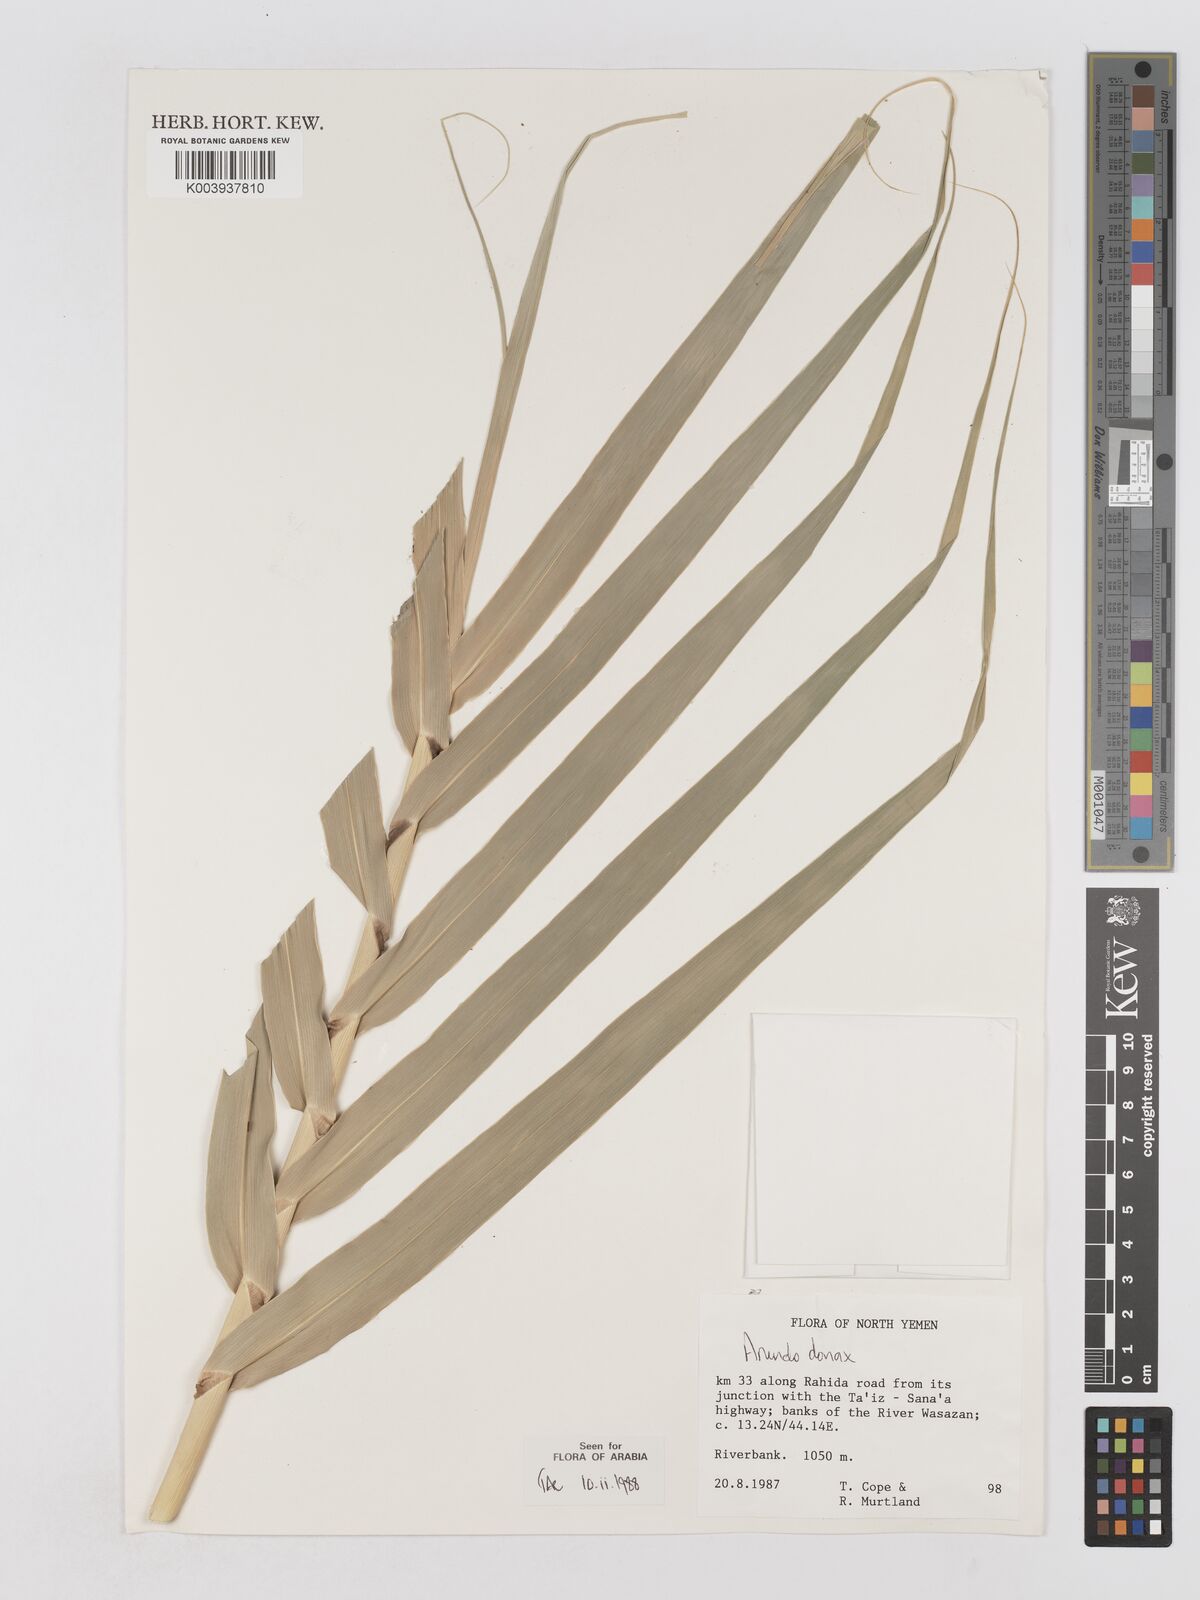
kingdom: Plantae
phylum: Tracheophyta
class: Liliopsida
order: Poales
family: Poaceae
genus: Arundo
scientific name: Arundo donax
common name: Giant reed
